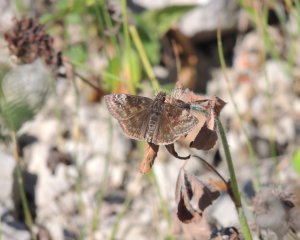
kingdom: Animalia
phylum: Arthropoda
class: Insecta
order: Lepidoptera
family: Hesperiidae
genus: Gesta
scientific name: Gesta
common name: Columbine Duskywing
